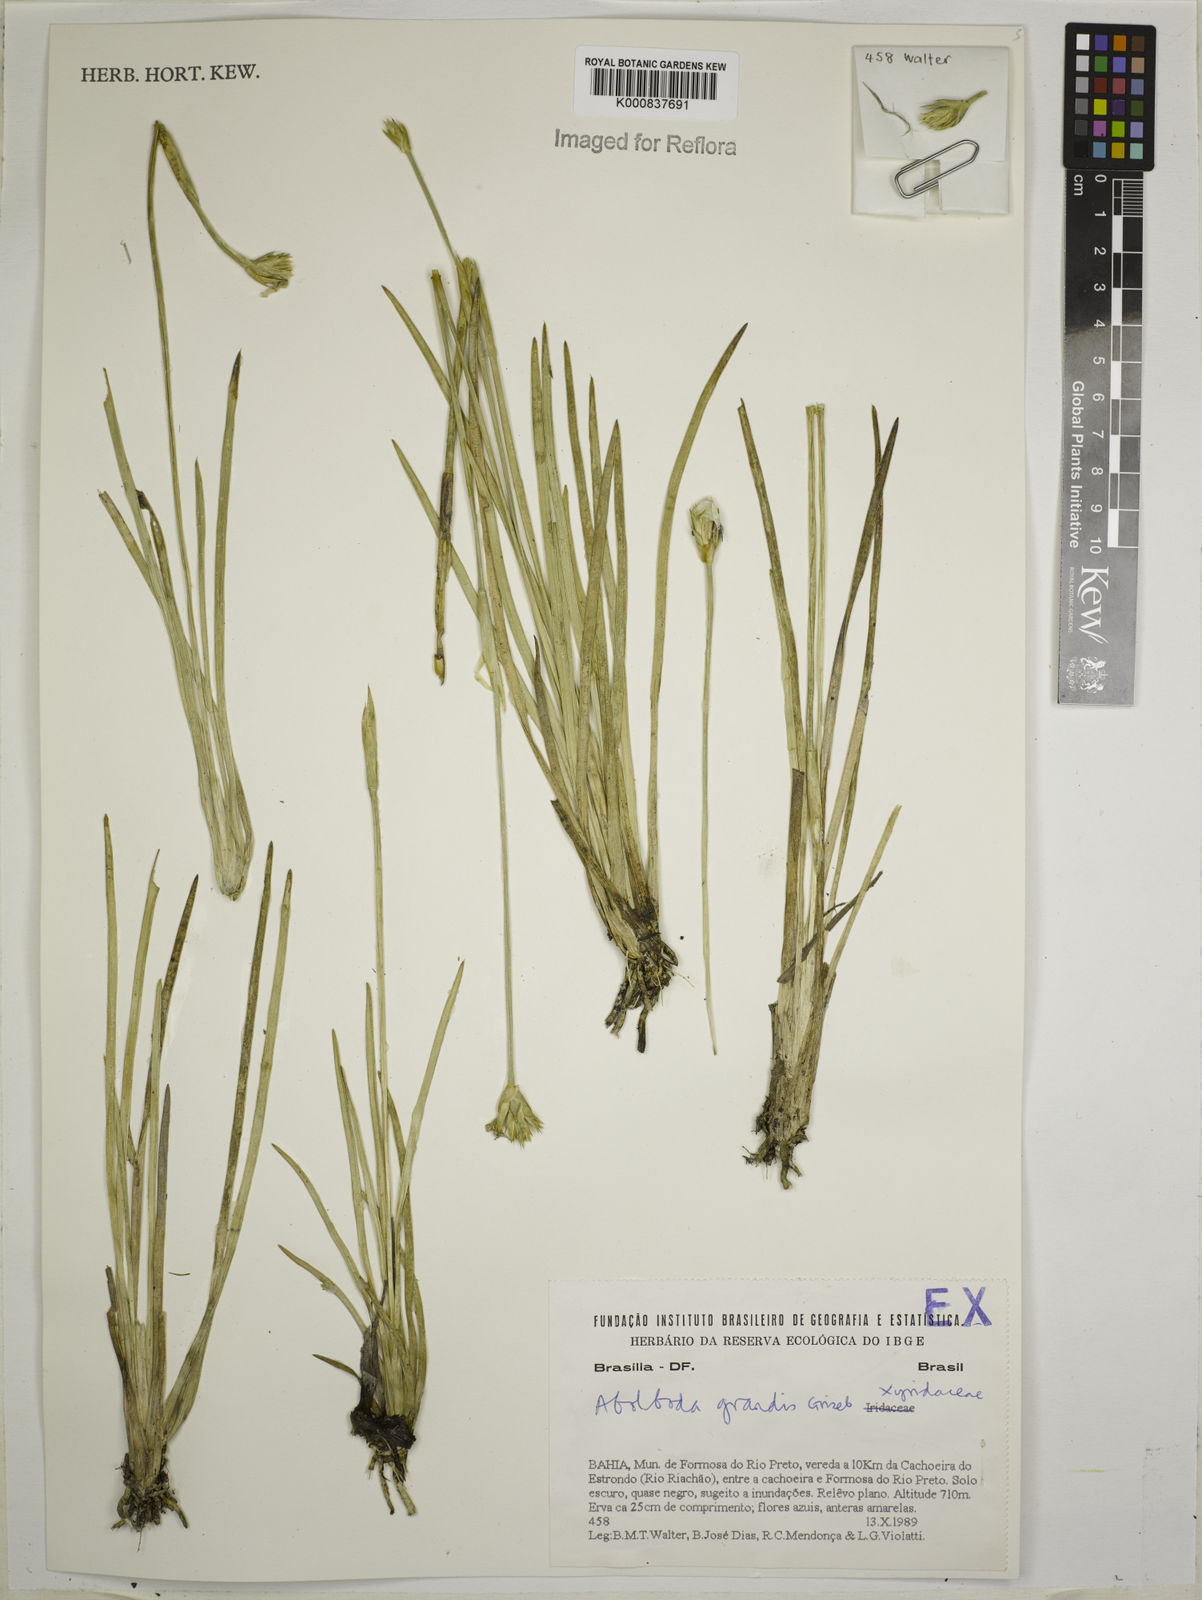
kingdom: Plantae
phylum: Tracheophyta
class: Liliopsida
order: Poales
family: Xyridaceae
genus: Abolboda
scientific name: Abolboda grandis
